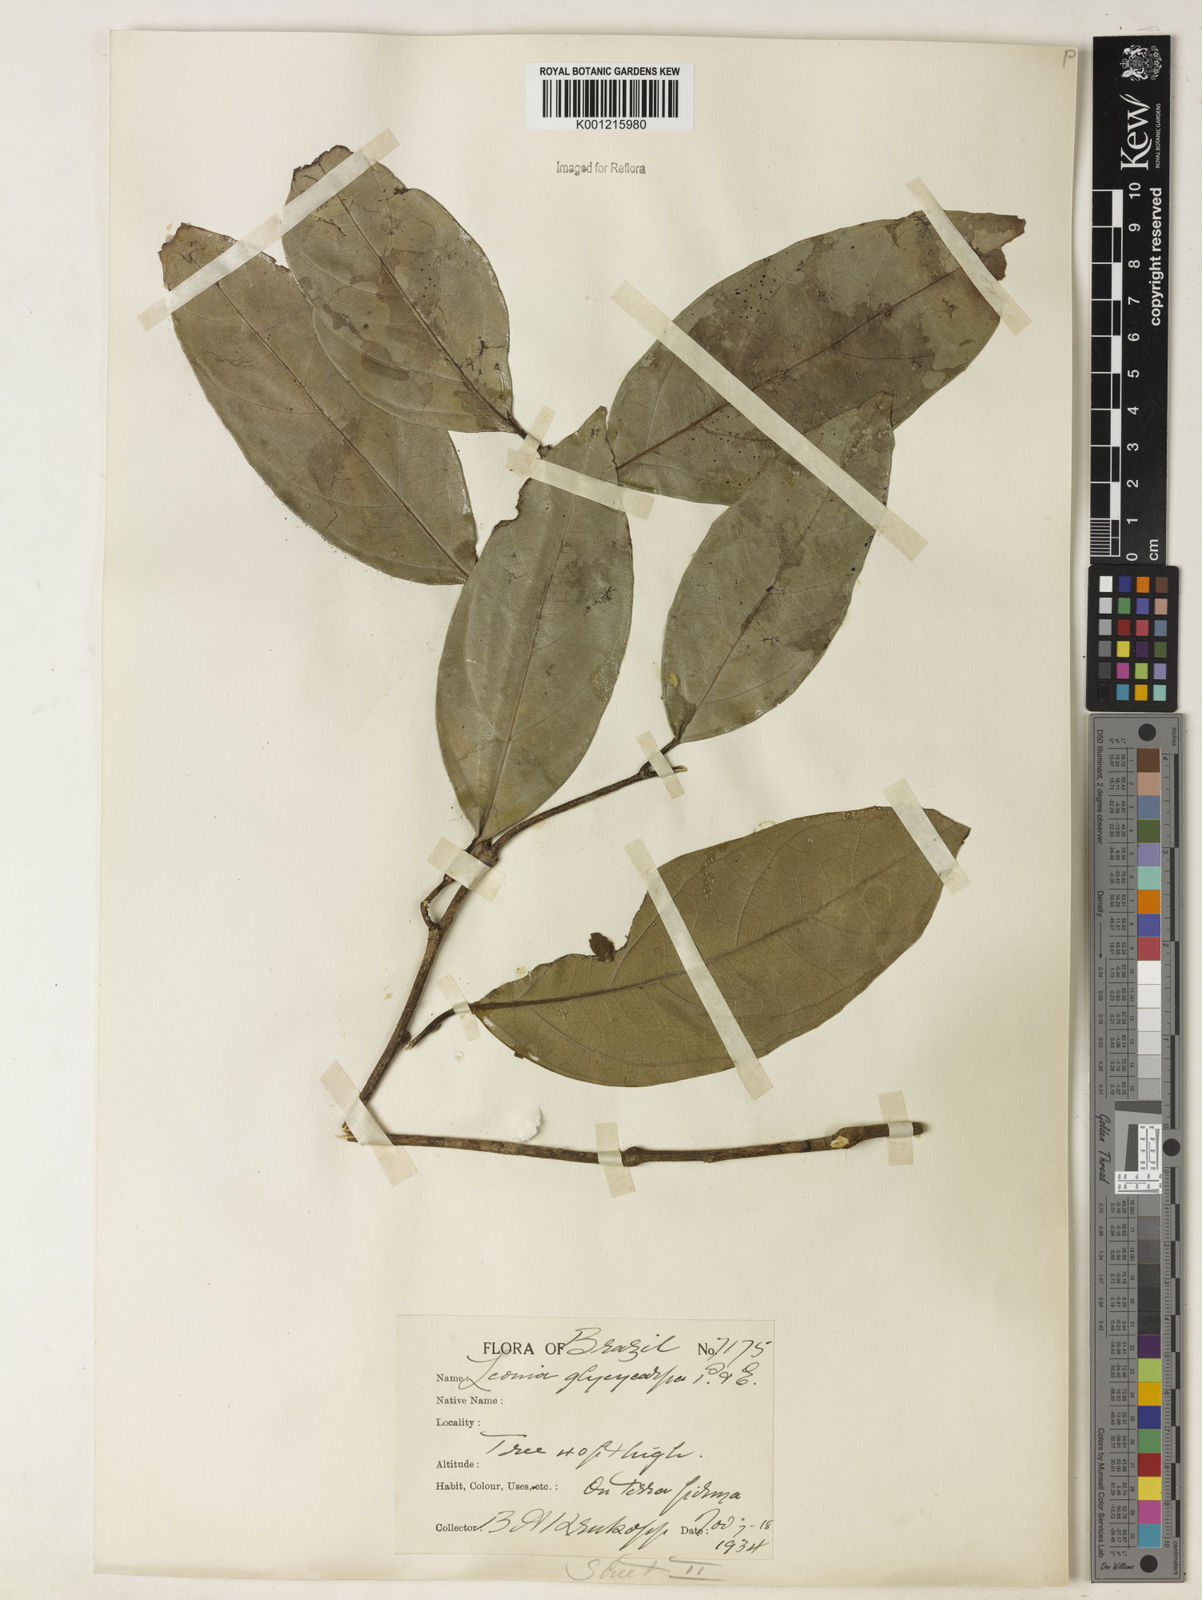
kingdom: Plantae
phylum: Tracheophyta
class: Magnoliopsida
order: Malpighiales
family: Violaceae
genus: Leonia
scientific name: Leonia glycycarpa
